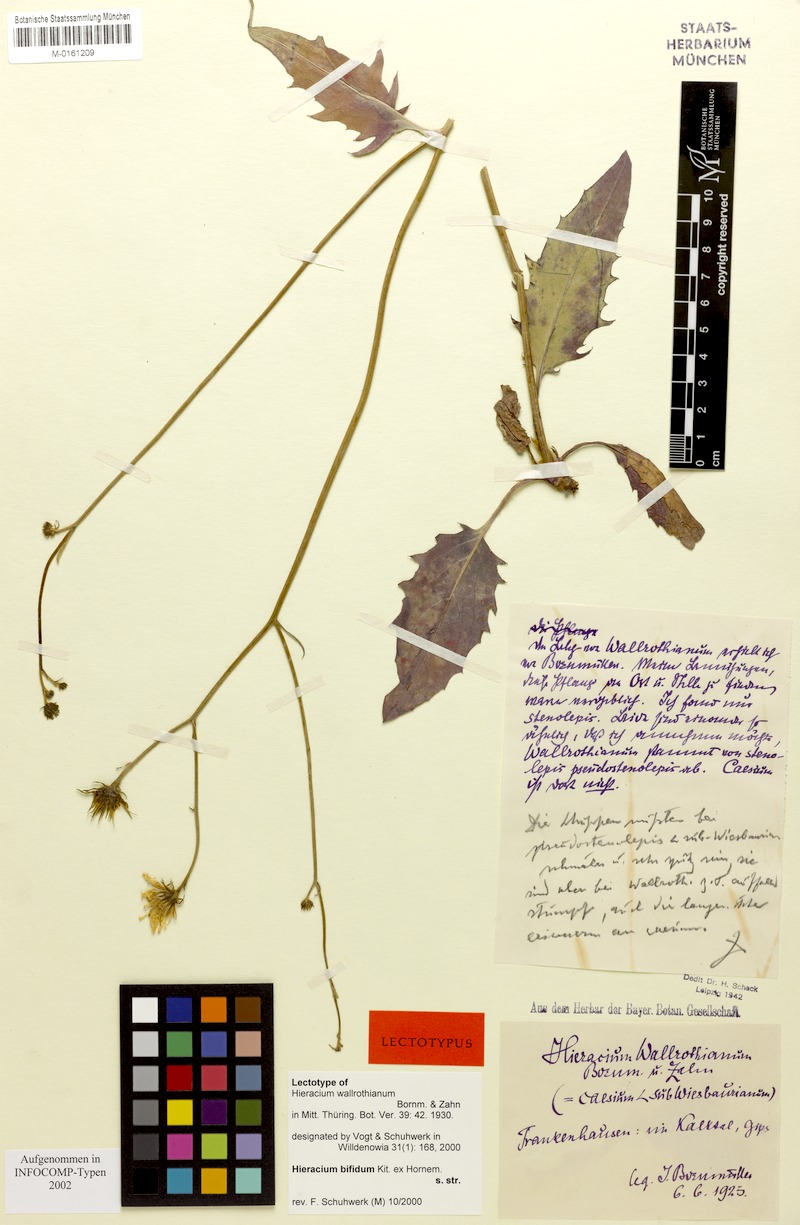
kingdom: Plantae
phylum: Tracheophyta
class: Magnoliopsida
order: Asterales
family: Asteraceae
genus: Hieracium
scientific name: Hieracium wallrothianum
